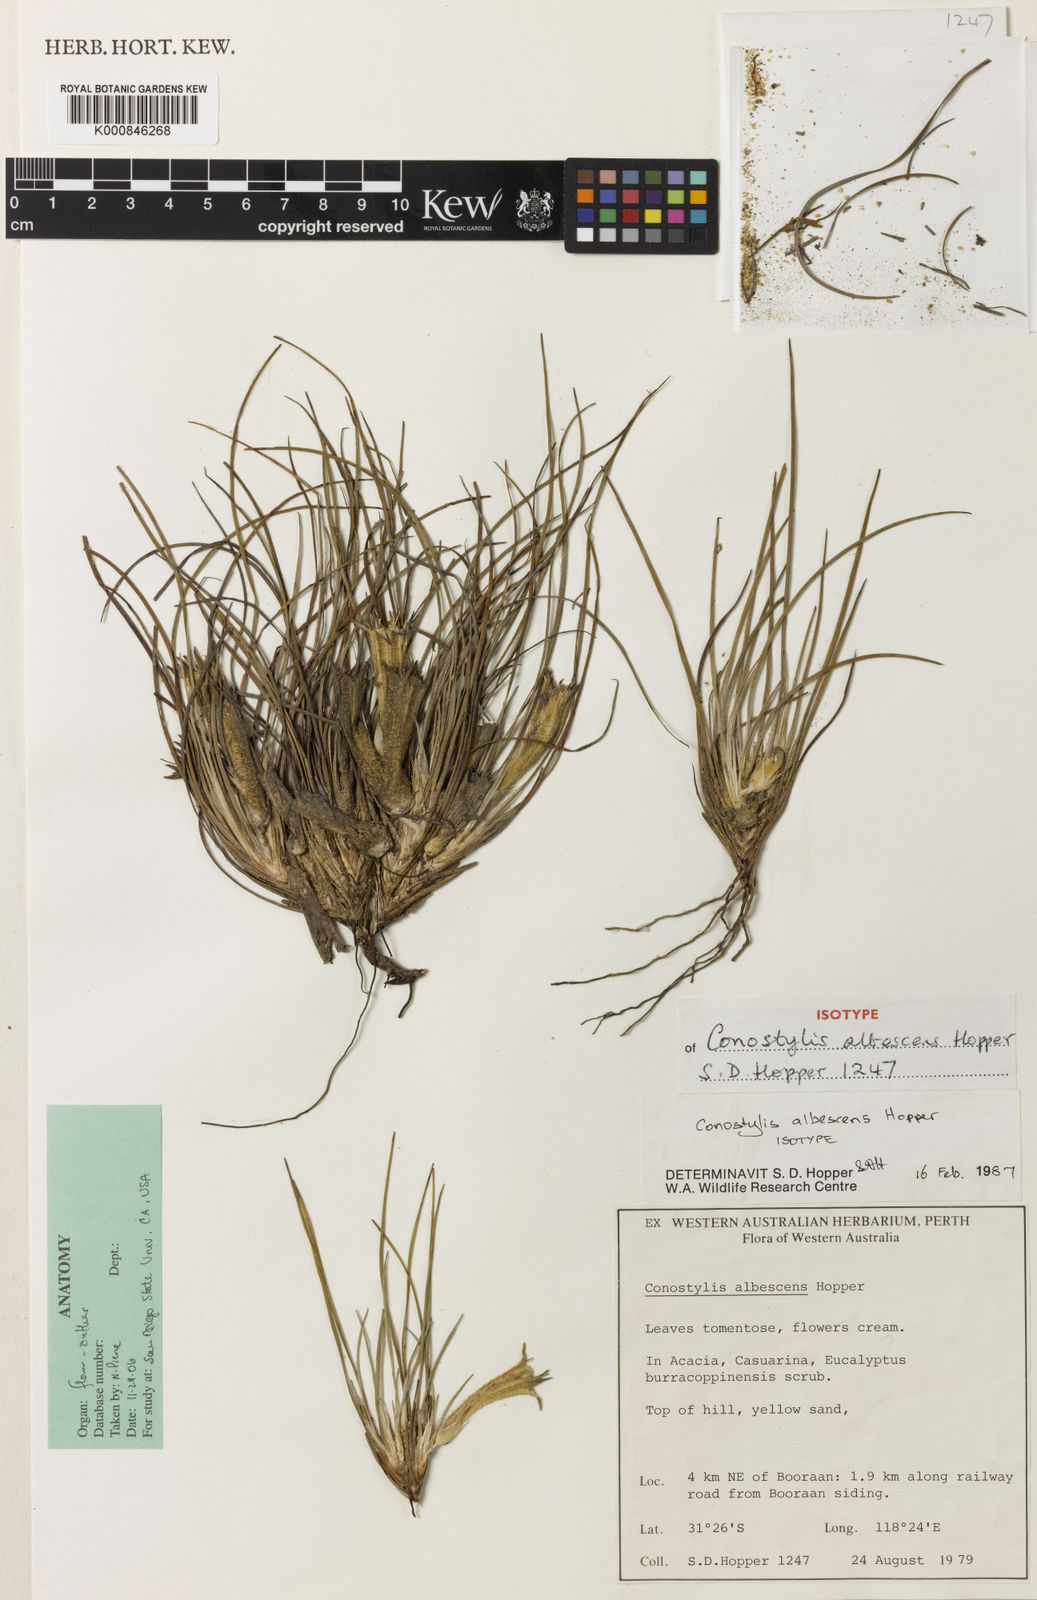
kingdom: Plantae
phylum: Tracheophyta
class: Liliopsida
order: Commelinales
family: Haemodoraceae
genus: Conostylis
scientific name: Conostylis albescens
